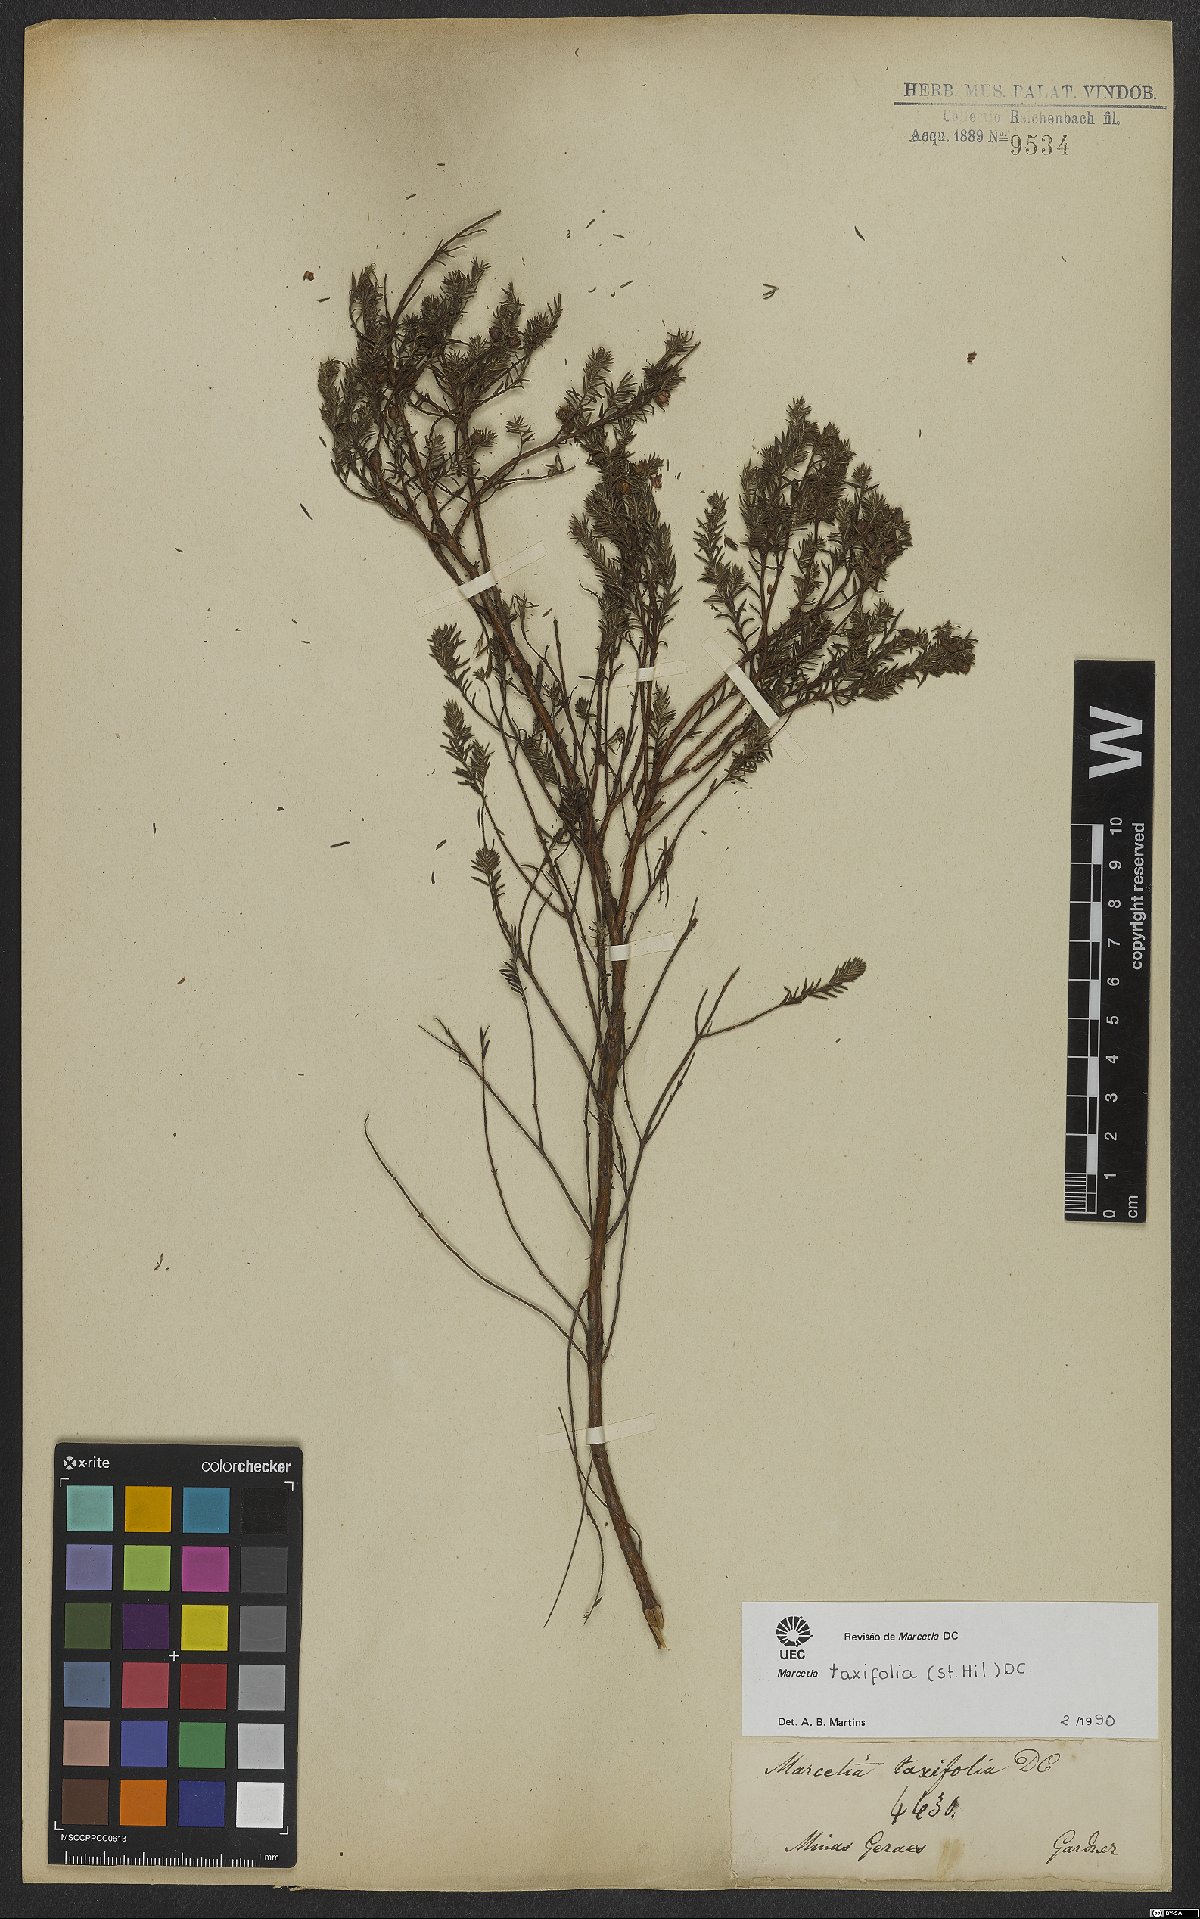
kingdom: Plantae
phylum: Tracheophyta
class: Magnoliopsida
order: Myrtales
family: Melastomataceae
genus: Marcetia
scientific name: Marcetia taxifolia
